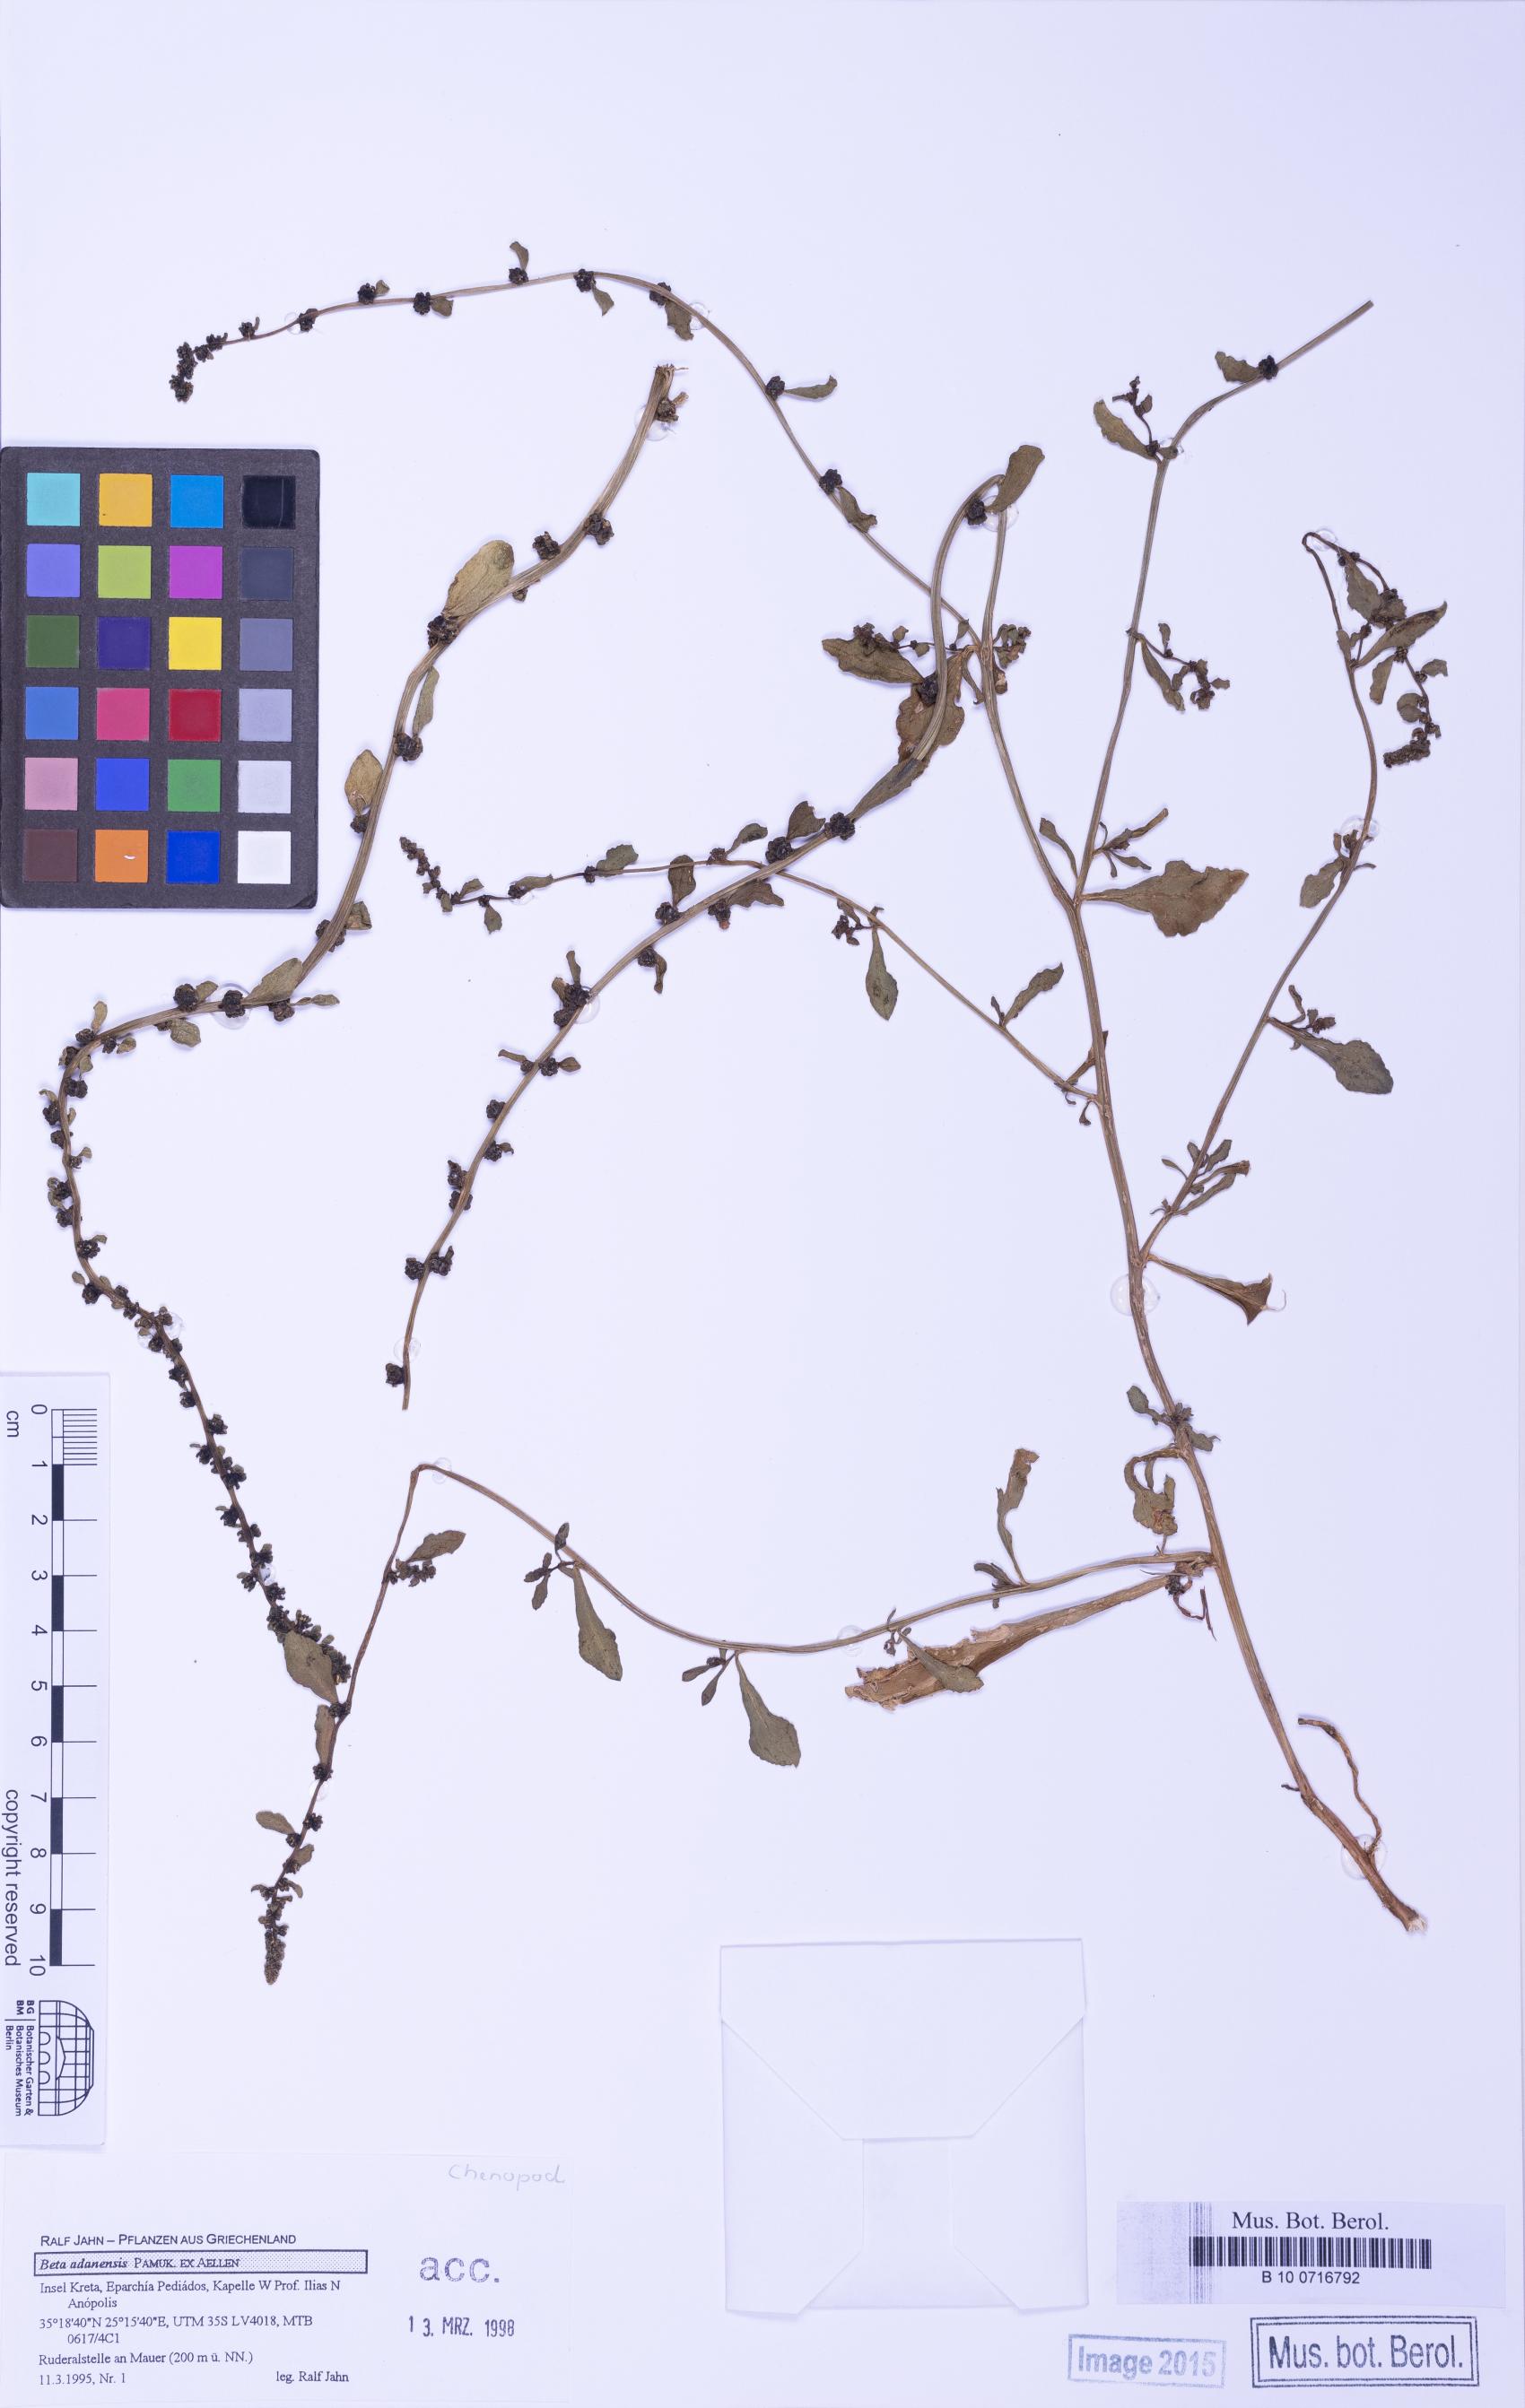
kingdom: Plantae
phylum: Tracheophyta
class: Magnoliopsida
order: Caryophyllales
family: Amaranthaceae
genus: Beta
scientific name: Beta adanensis
